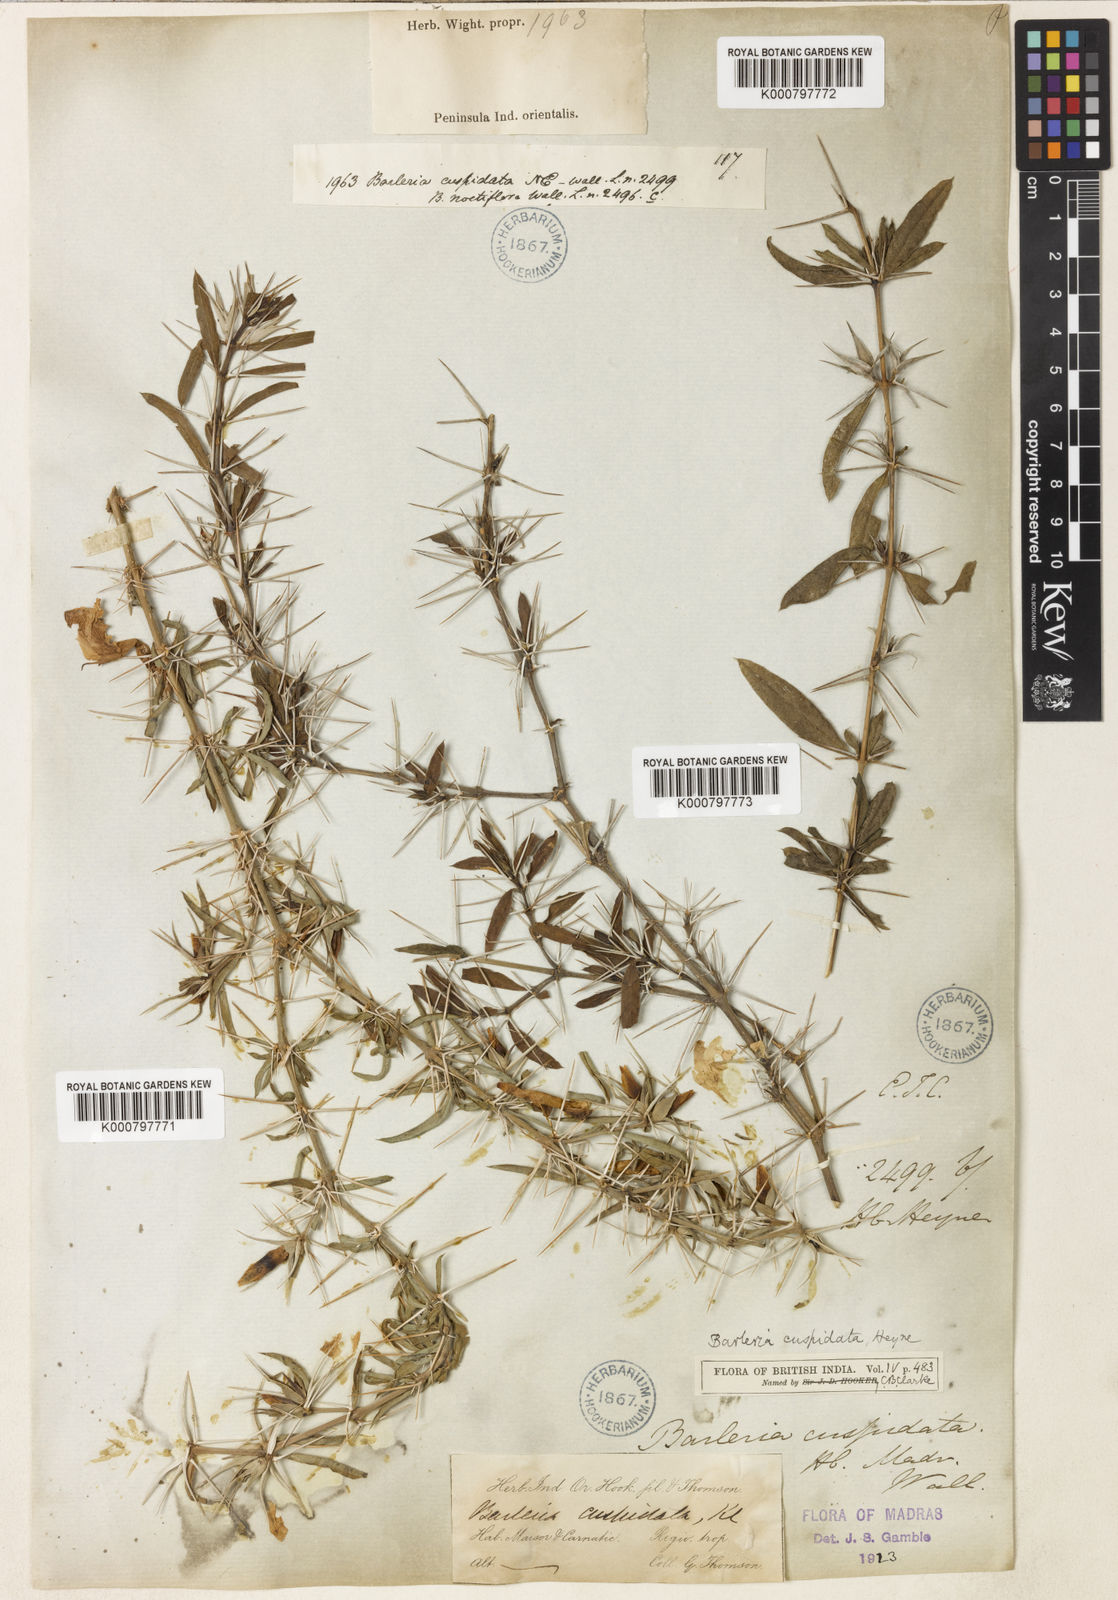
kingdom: Plantae
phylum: Tracheophyta
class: Magnoliopsida
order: Lamiales
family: Acanthaceae
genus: Barleria
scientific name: Barleria cuspidata
